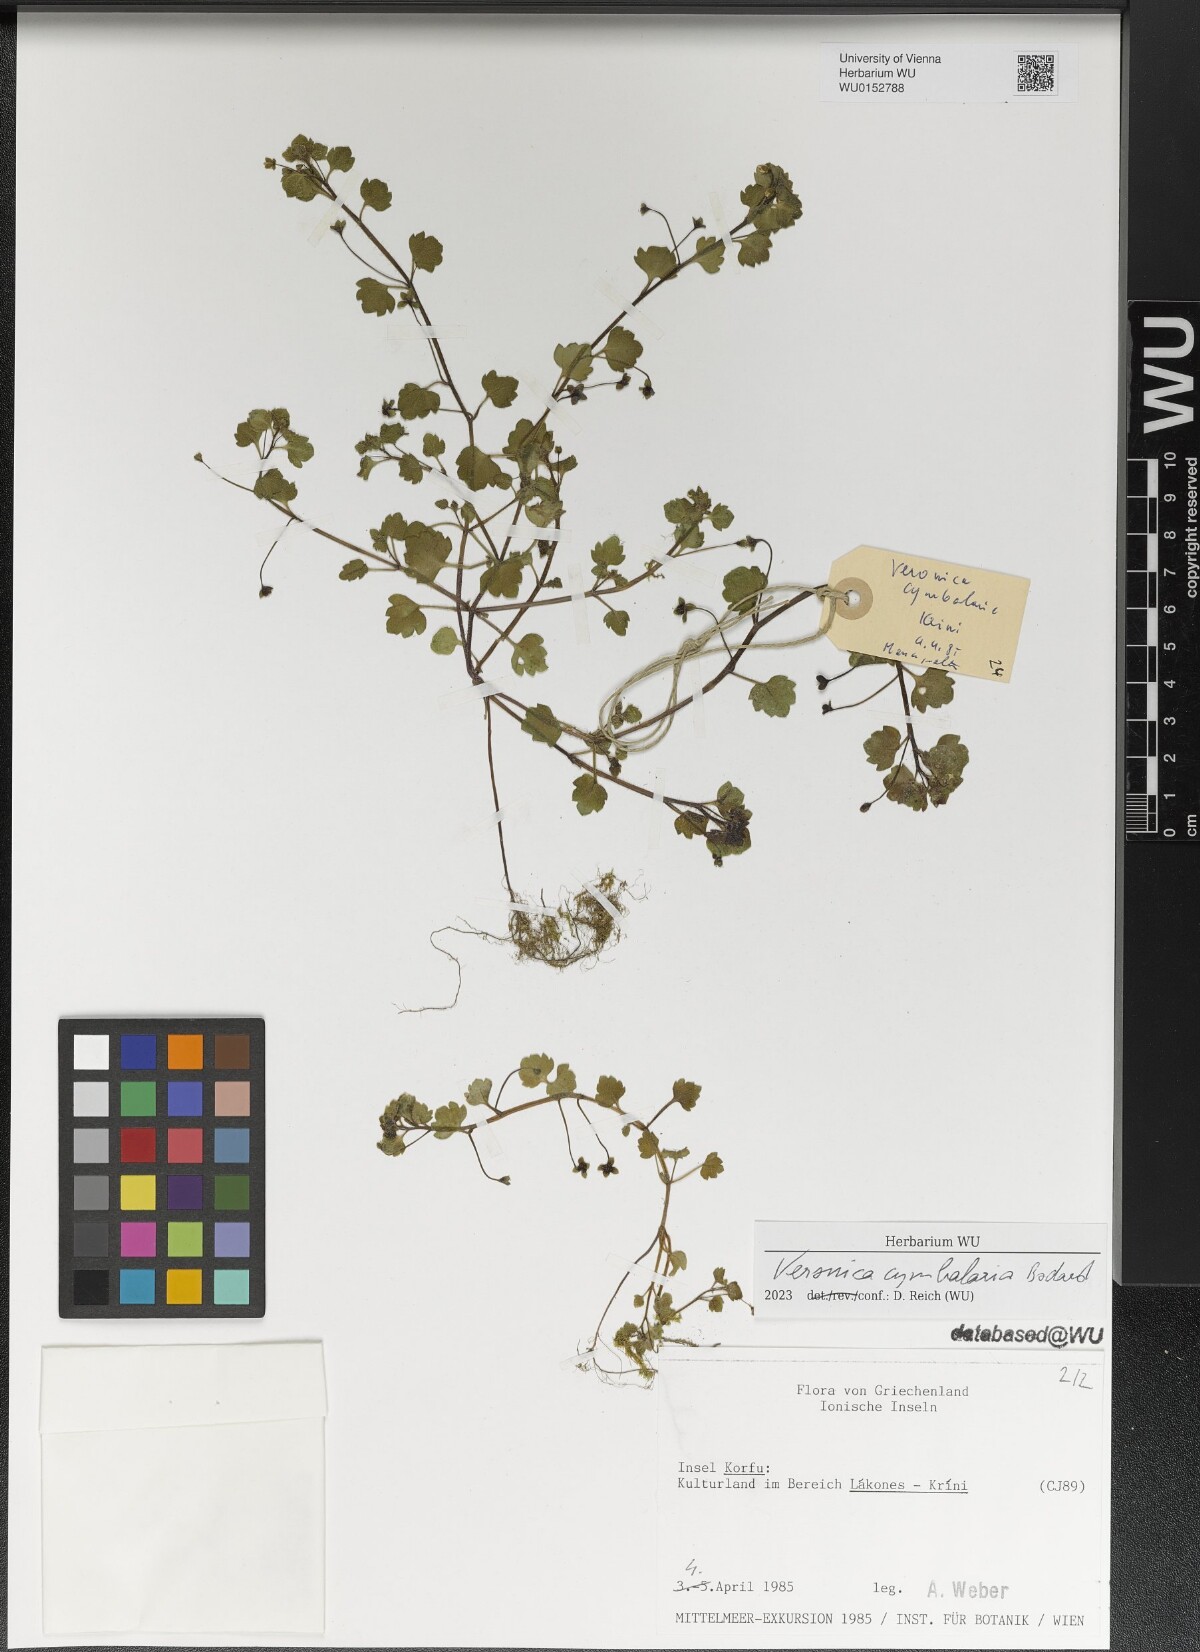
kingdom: Plantae
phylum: Tracheophyta
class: Magnoliopsida
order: Lamiales
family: Plantaginaceae
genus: Veronica
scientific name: Veronica cymbalaria
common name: Pale speedwell
